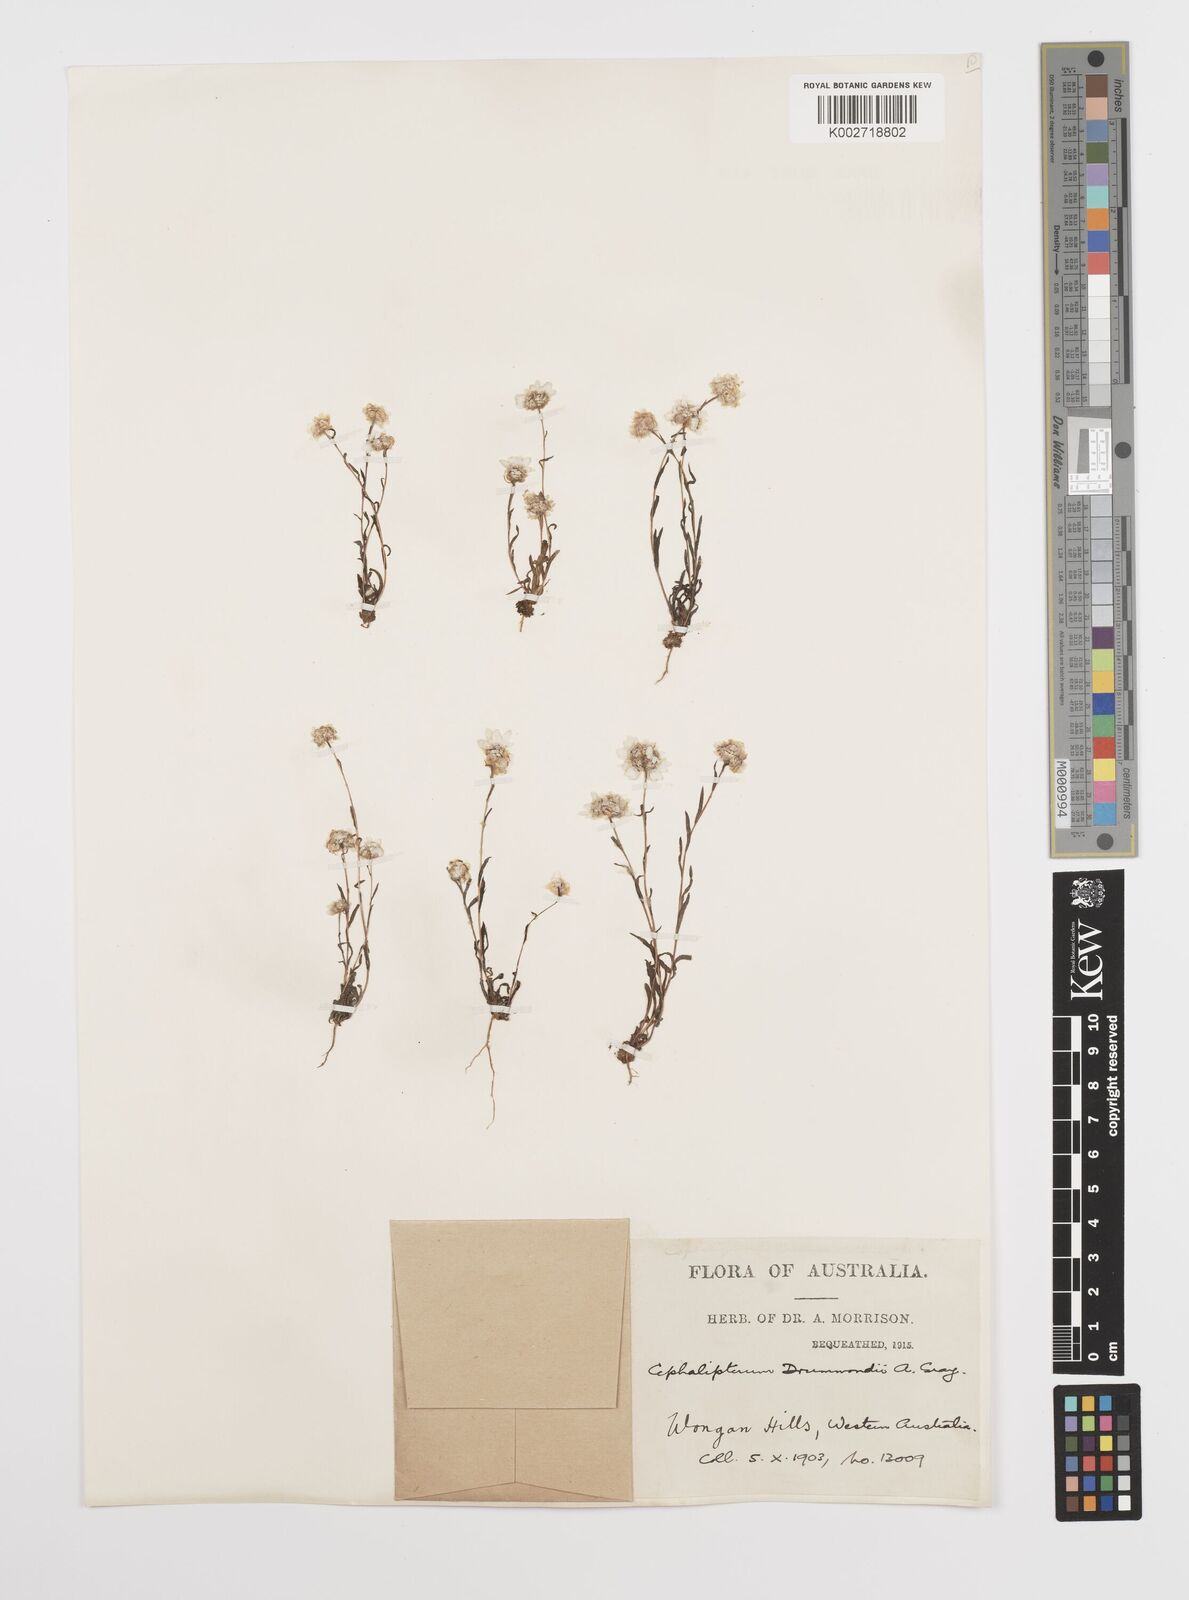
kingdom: Plantae
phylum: Tracheophyta
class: Magnoliopsida
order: Asterales
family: Asteraceae
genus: Cephalipterum
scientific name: Cephalipterum drummondii
